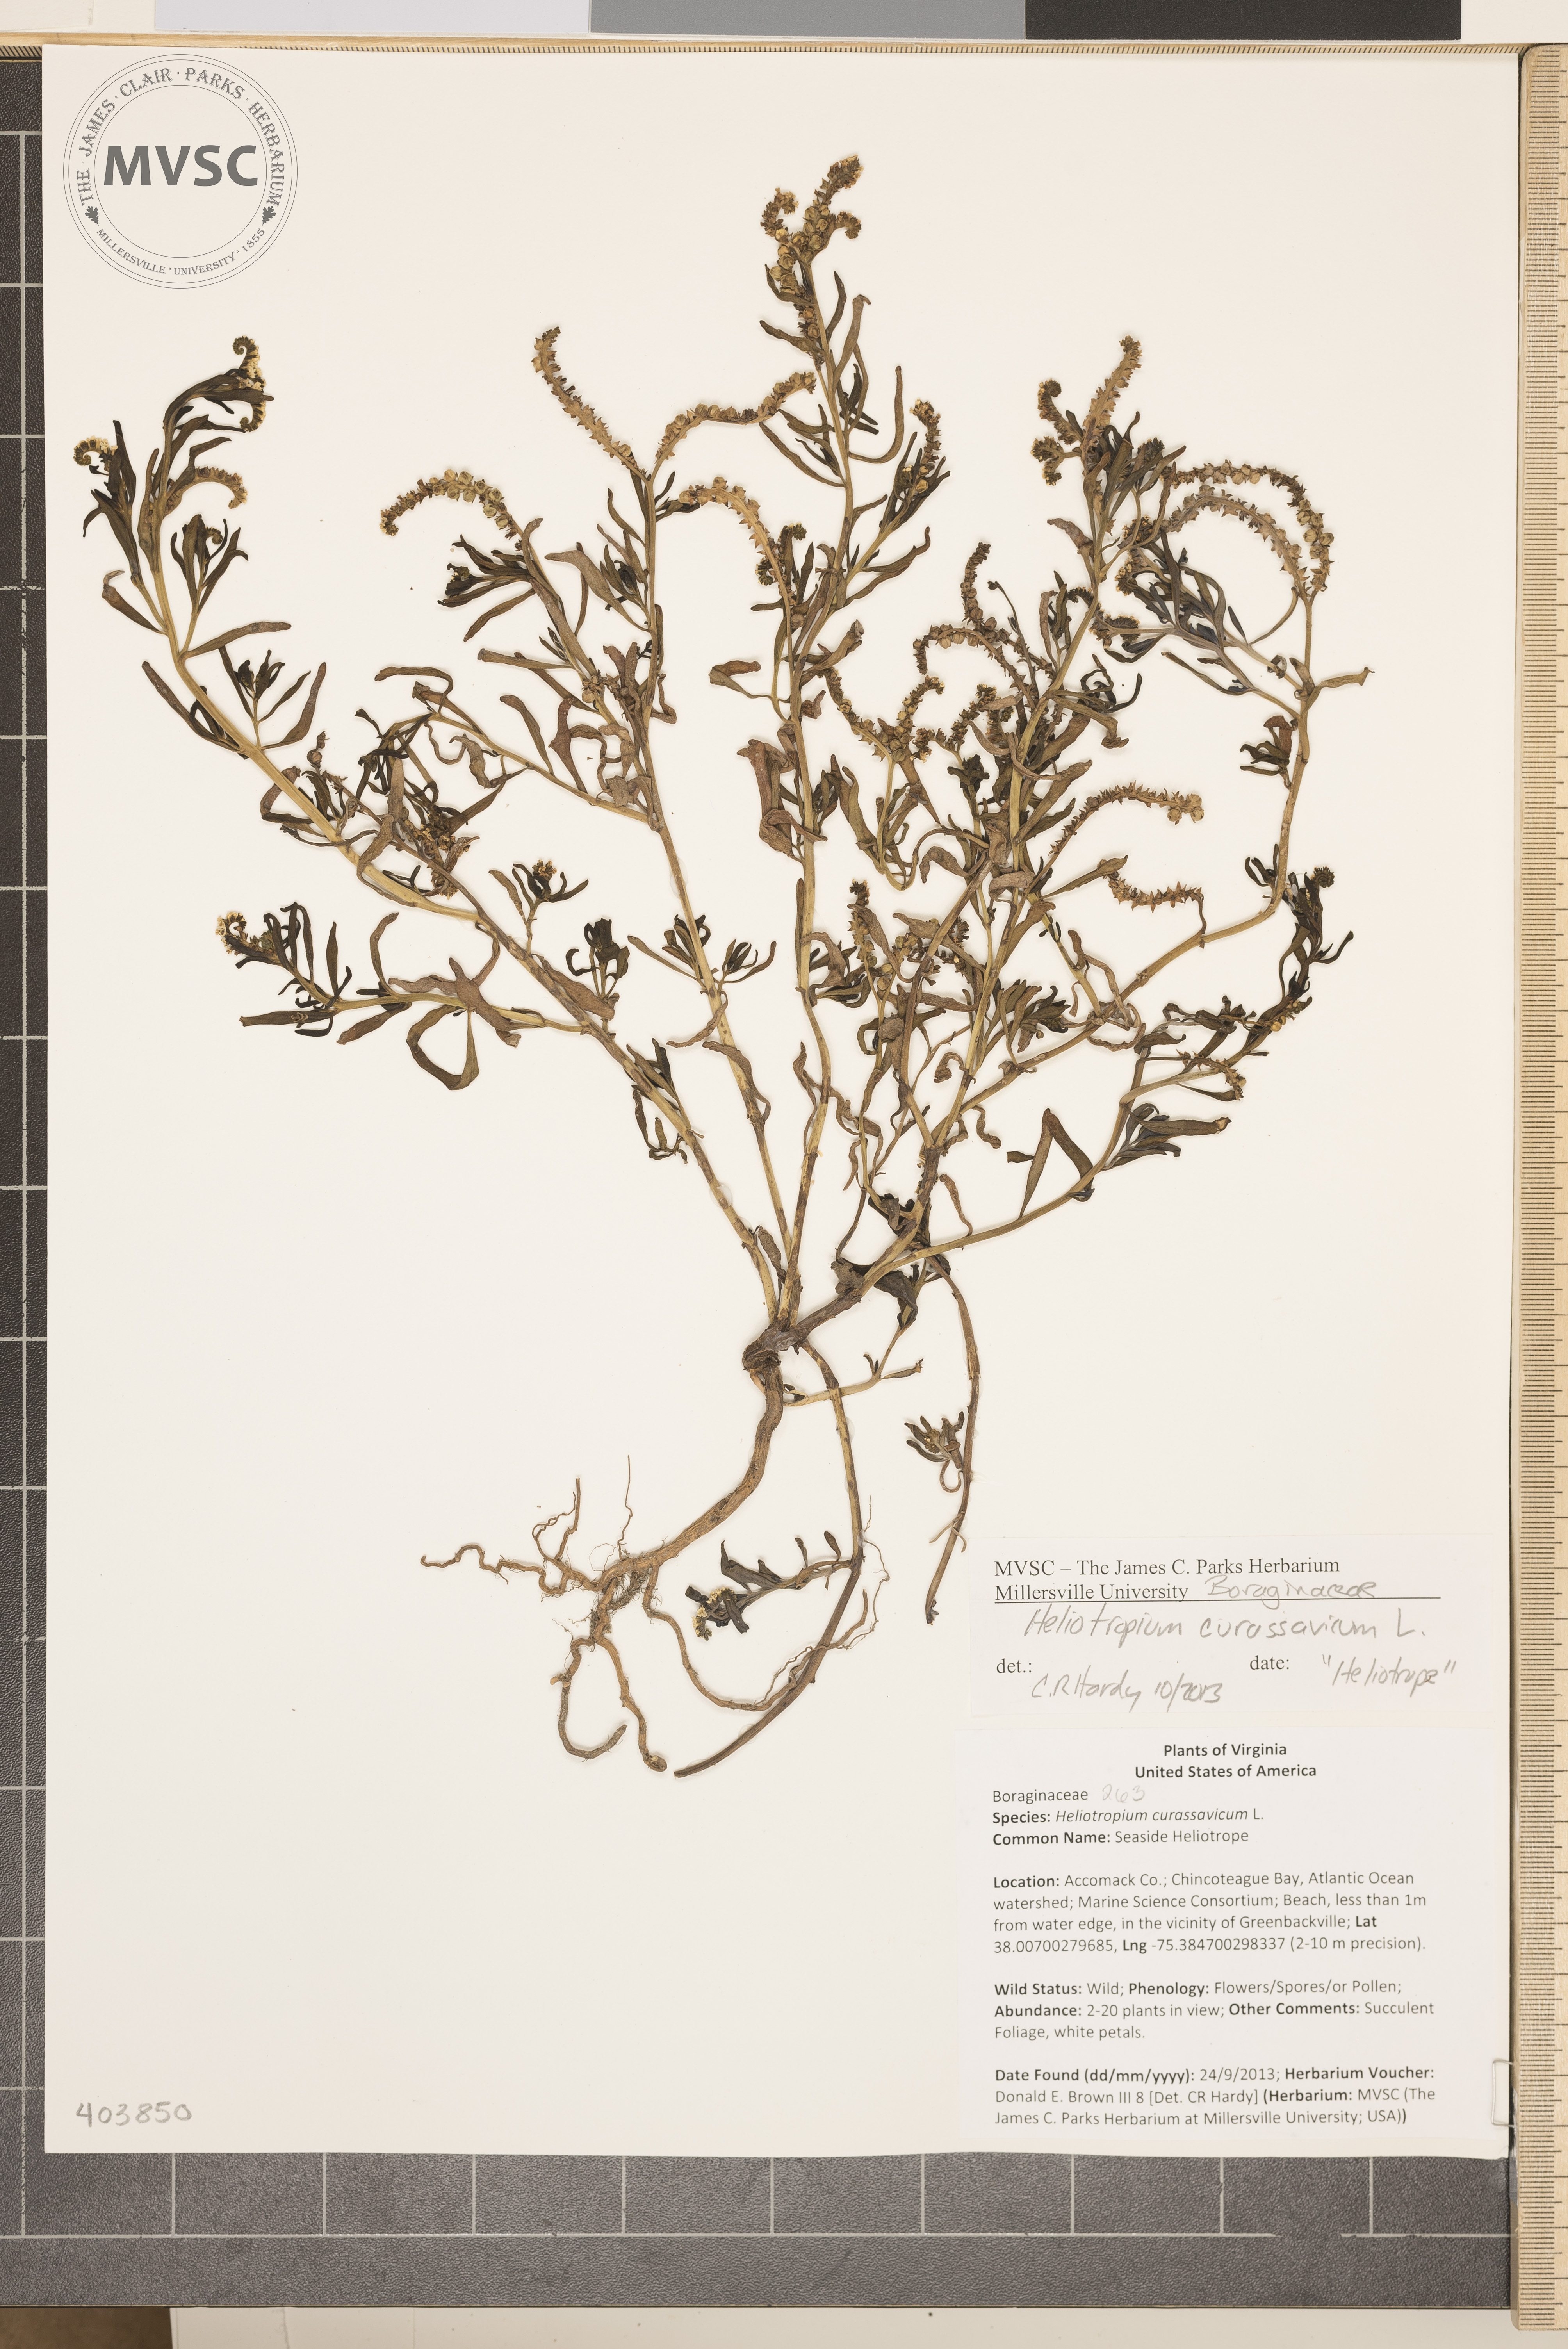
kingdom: Plantae
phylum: Tracheophyta
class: Magnoliopsida
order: Boraginales
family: Heliotropiaceae
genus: Heliotropium
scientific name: Heliotropium curassavicum
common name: Seaside Heliotrope
